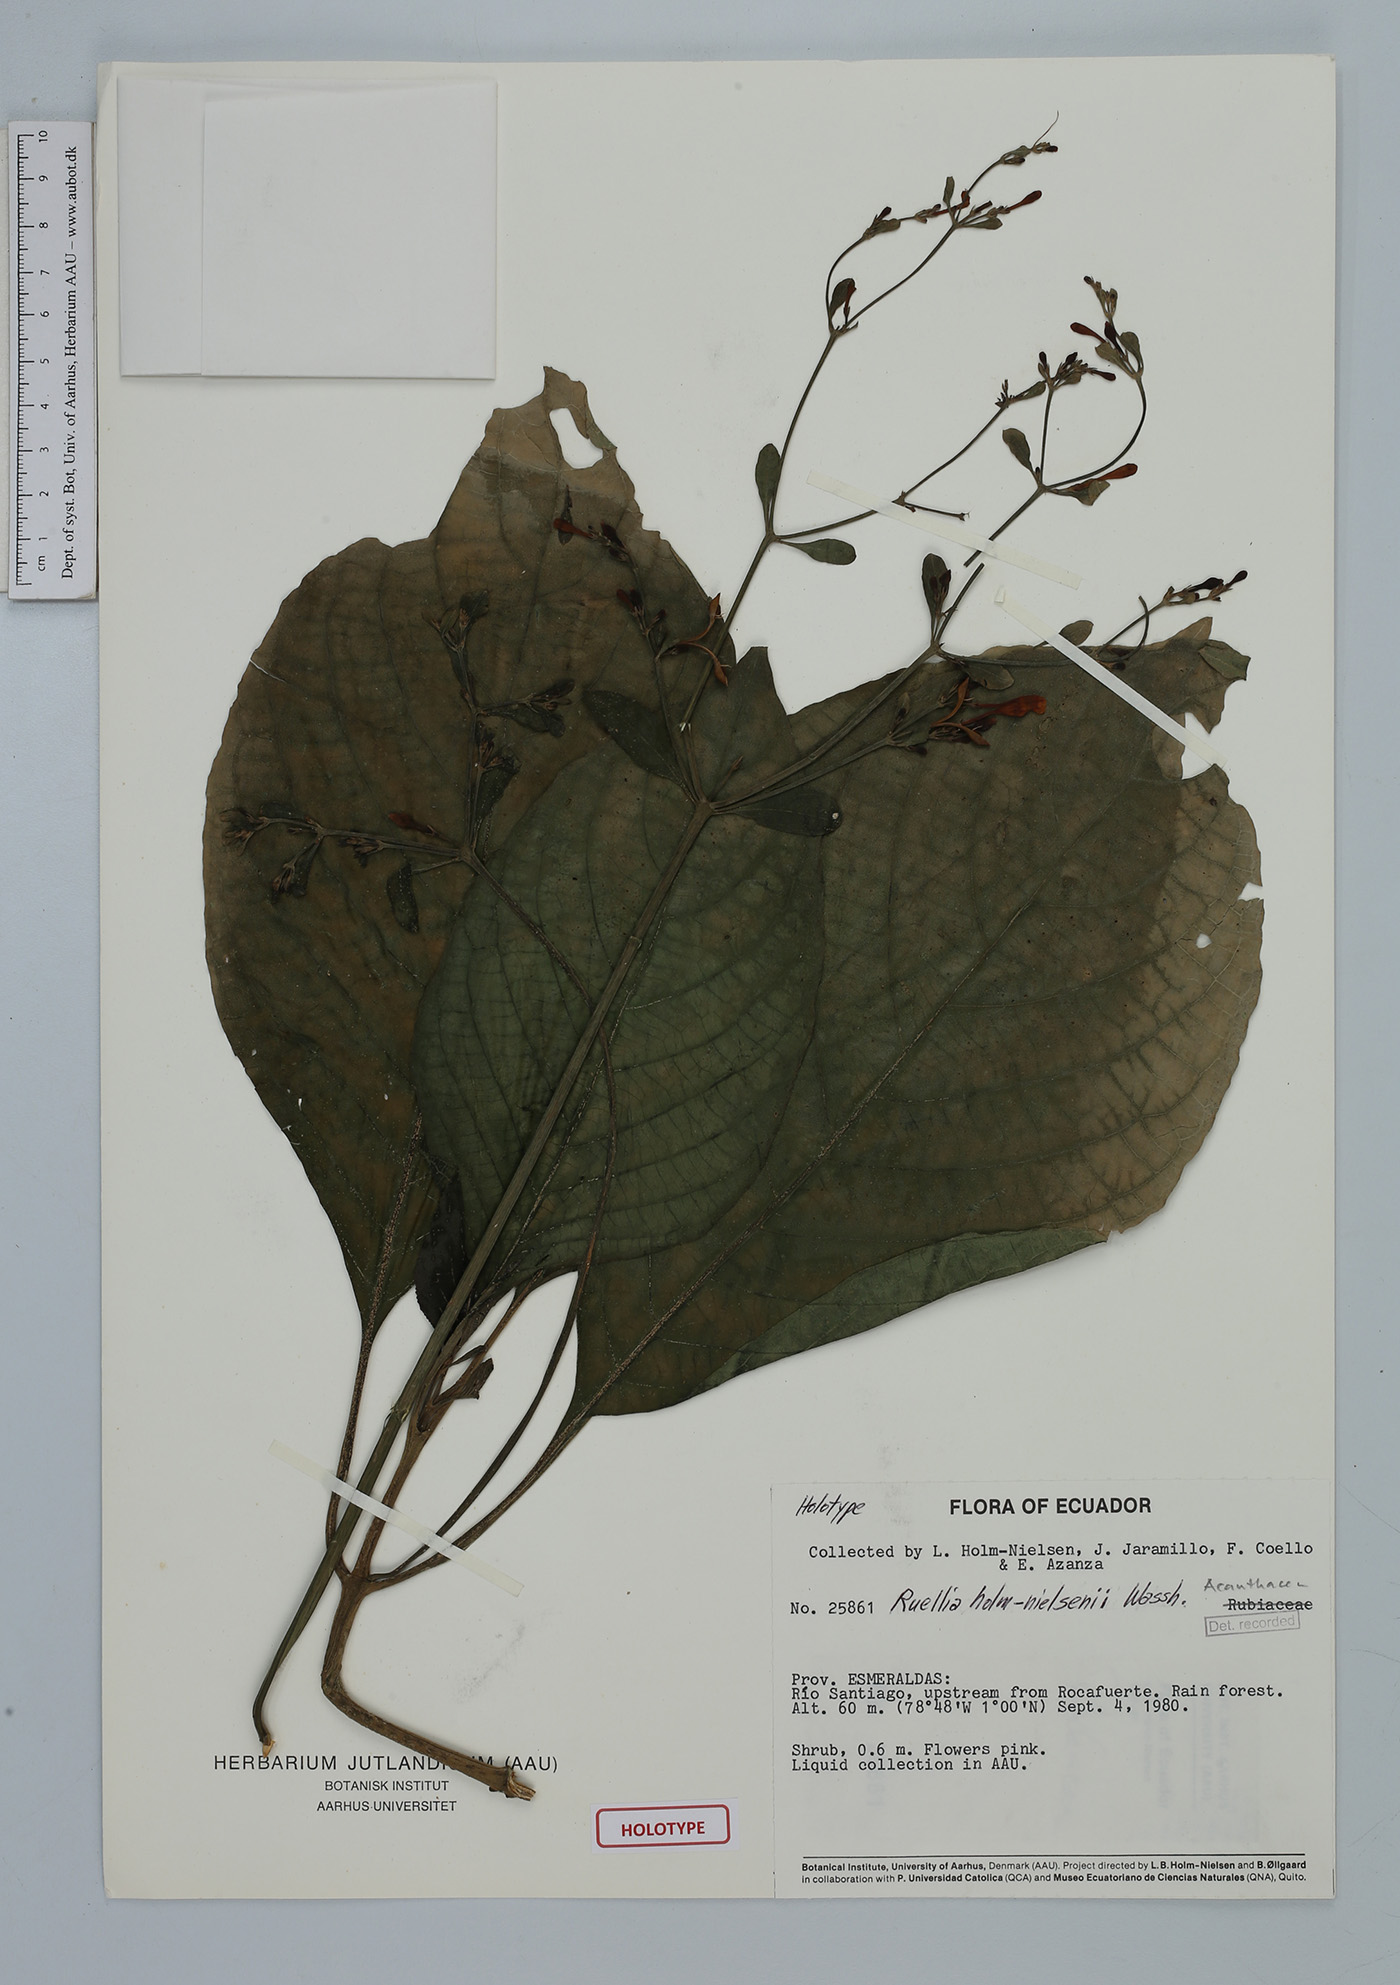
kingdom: Plantae
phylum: Tracheophyta
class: Magnoliopsida
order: Lamiales
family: Acanthaceae
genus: Ruellia
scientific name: Ruellia holm-nielsenii
